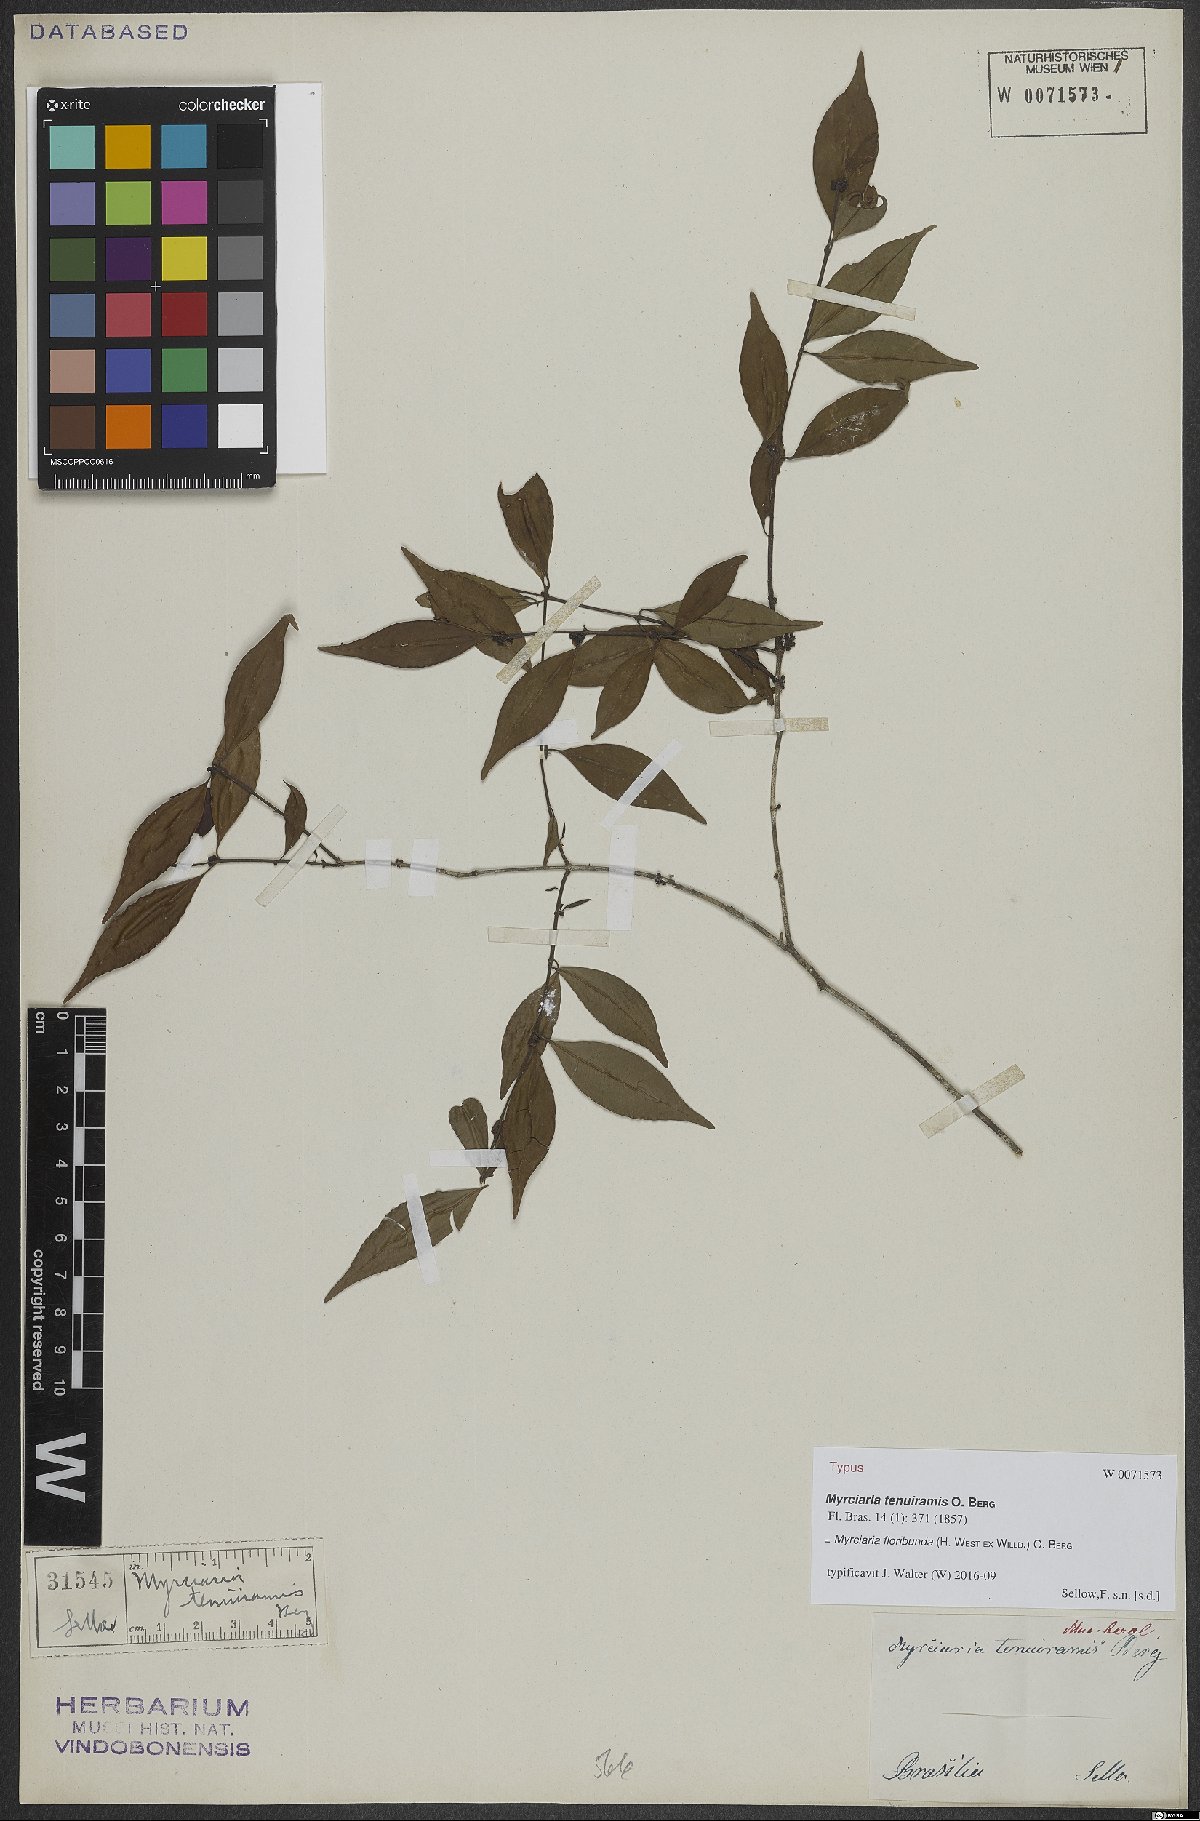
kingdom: Plantae
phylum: Tracheophyta
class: Magnoliopsida
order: Myrtales
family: Myrtaceae
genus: Myrciaria
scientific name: Myrciaria floribunda
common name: Guavaberry
